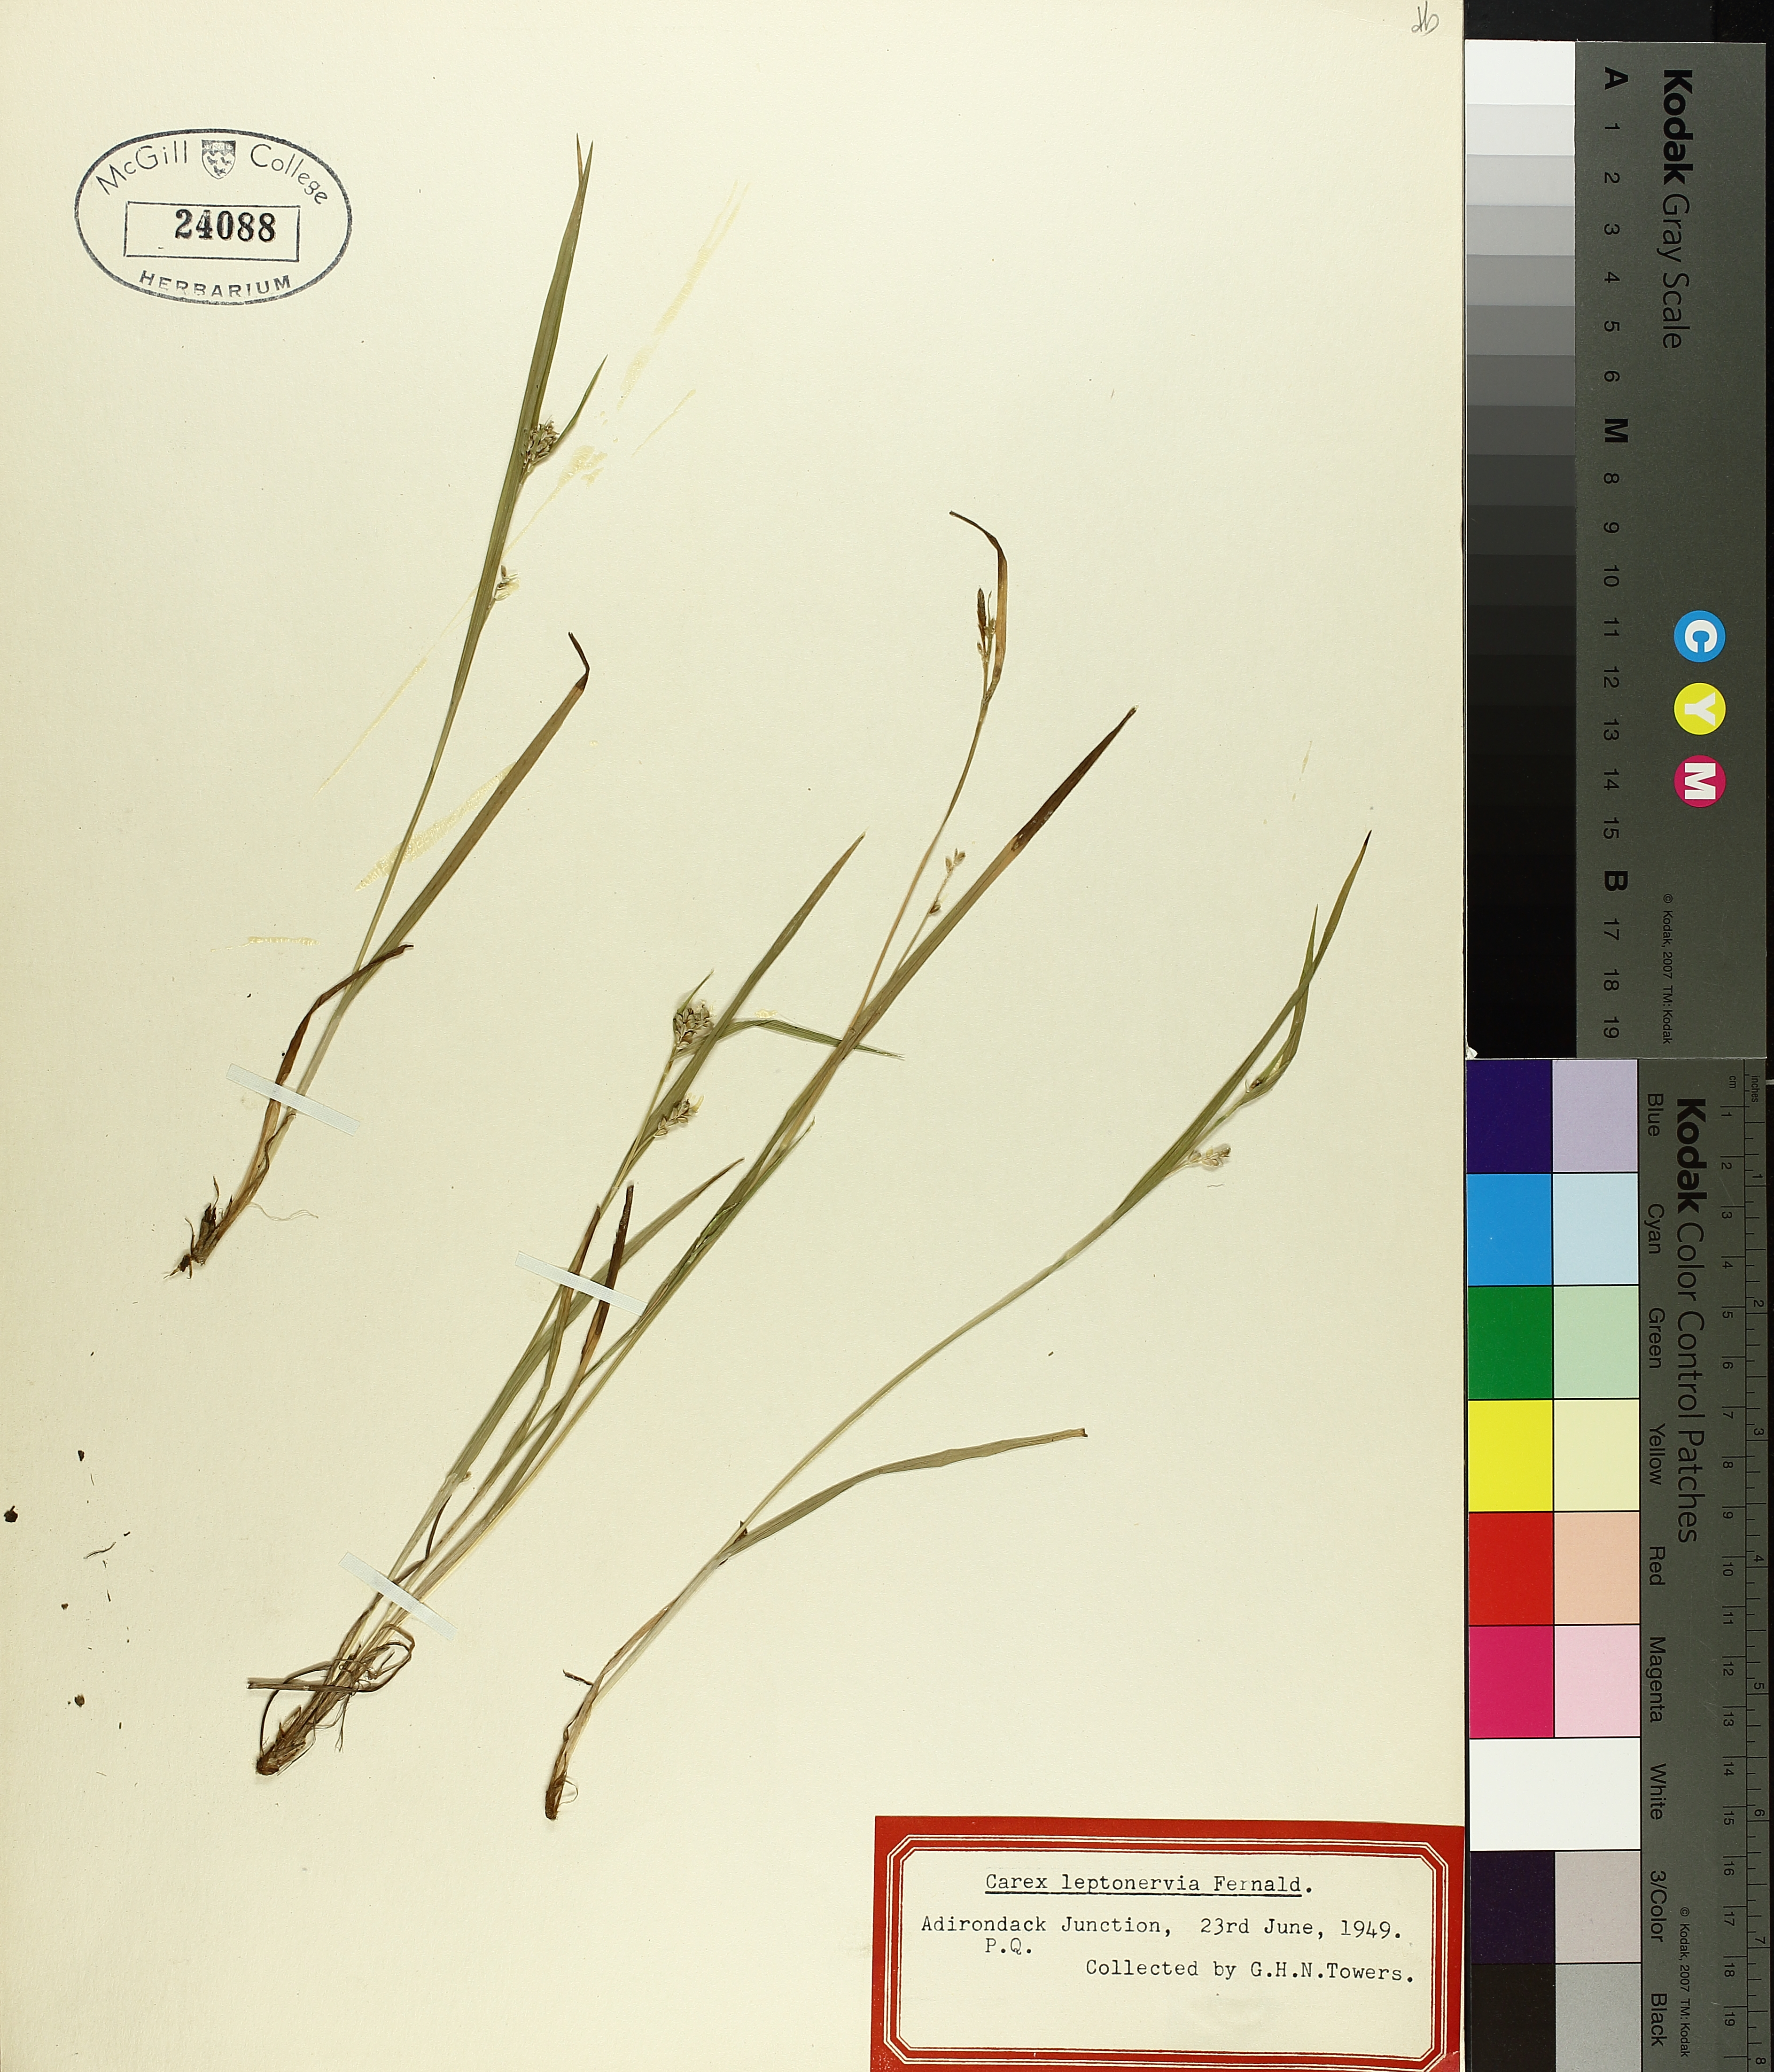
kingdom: Plantae
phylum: Tracheophyta
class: Liliopsida
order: Poales
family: Cyperaceae
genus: Carex
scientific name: Carex leptonervia
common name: Few-nerved wood sedge
